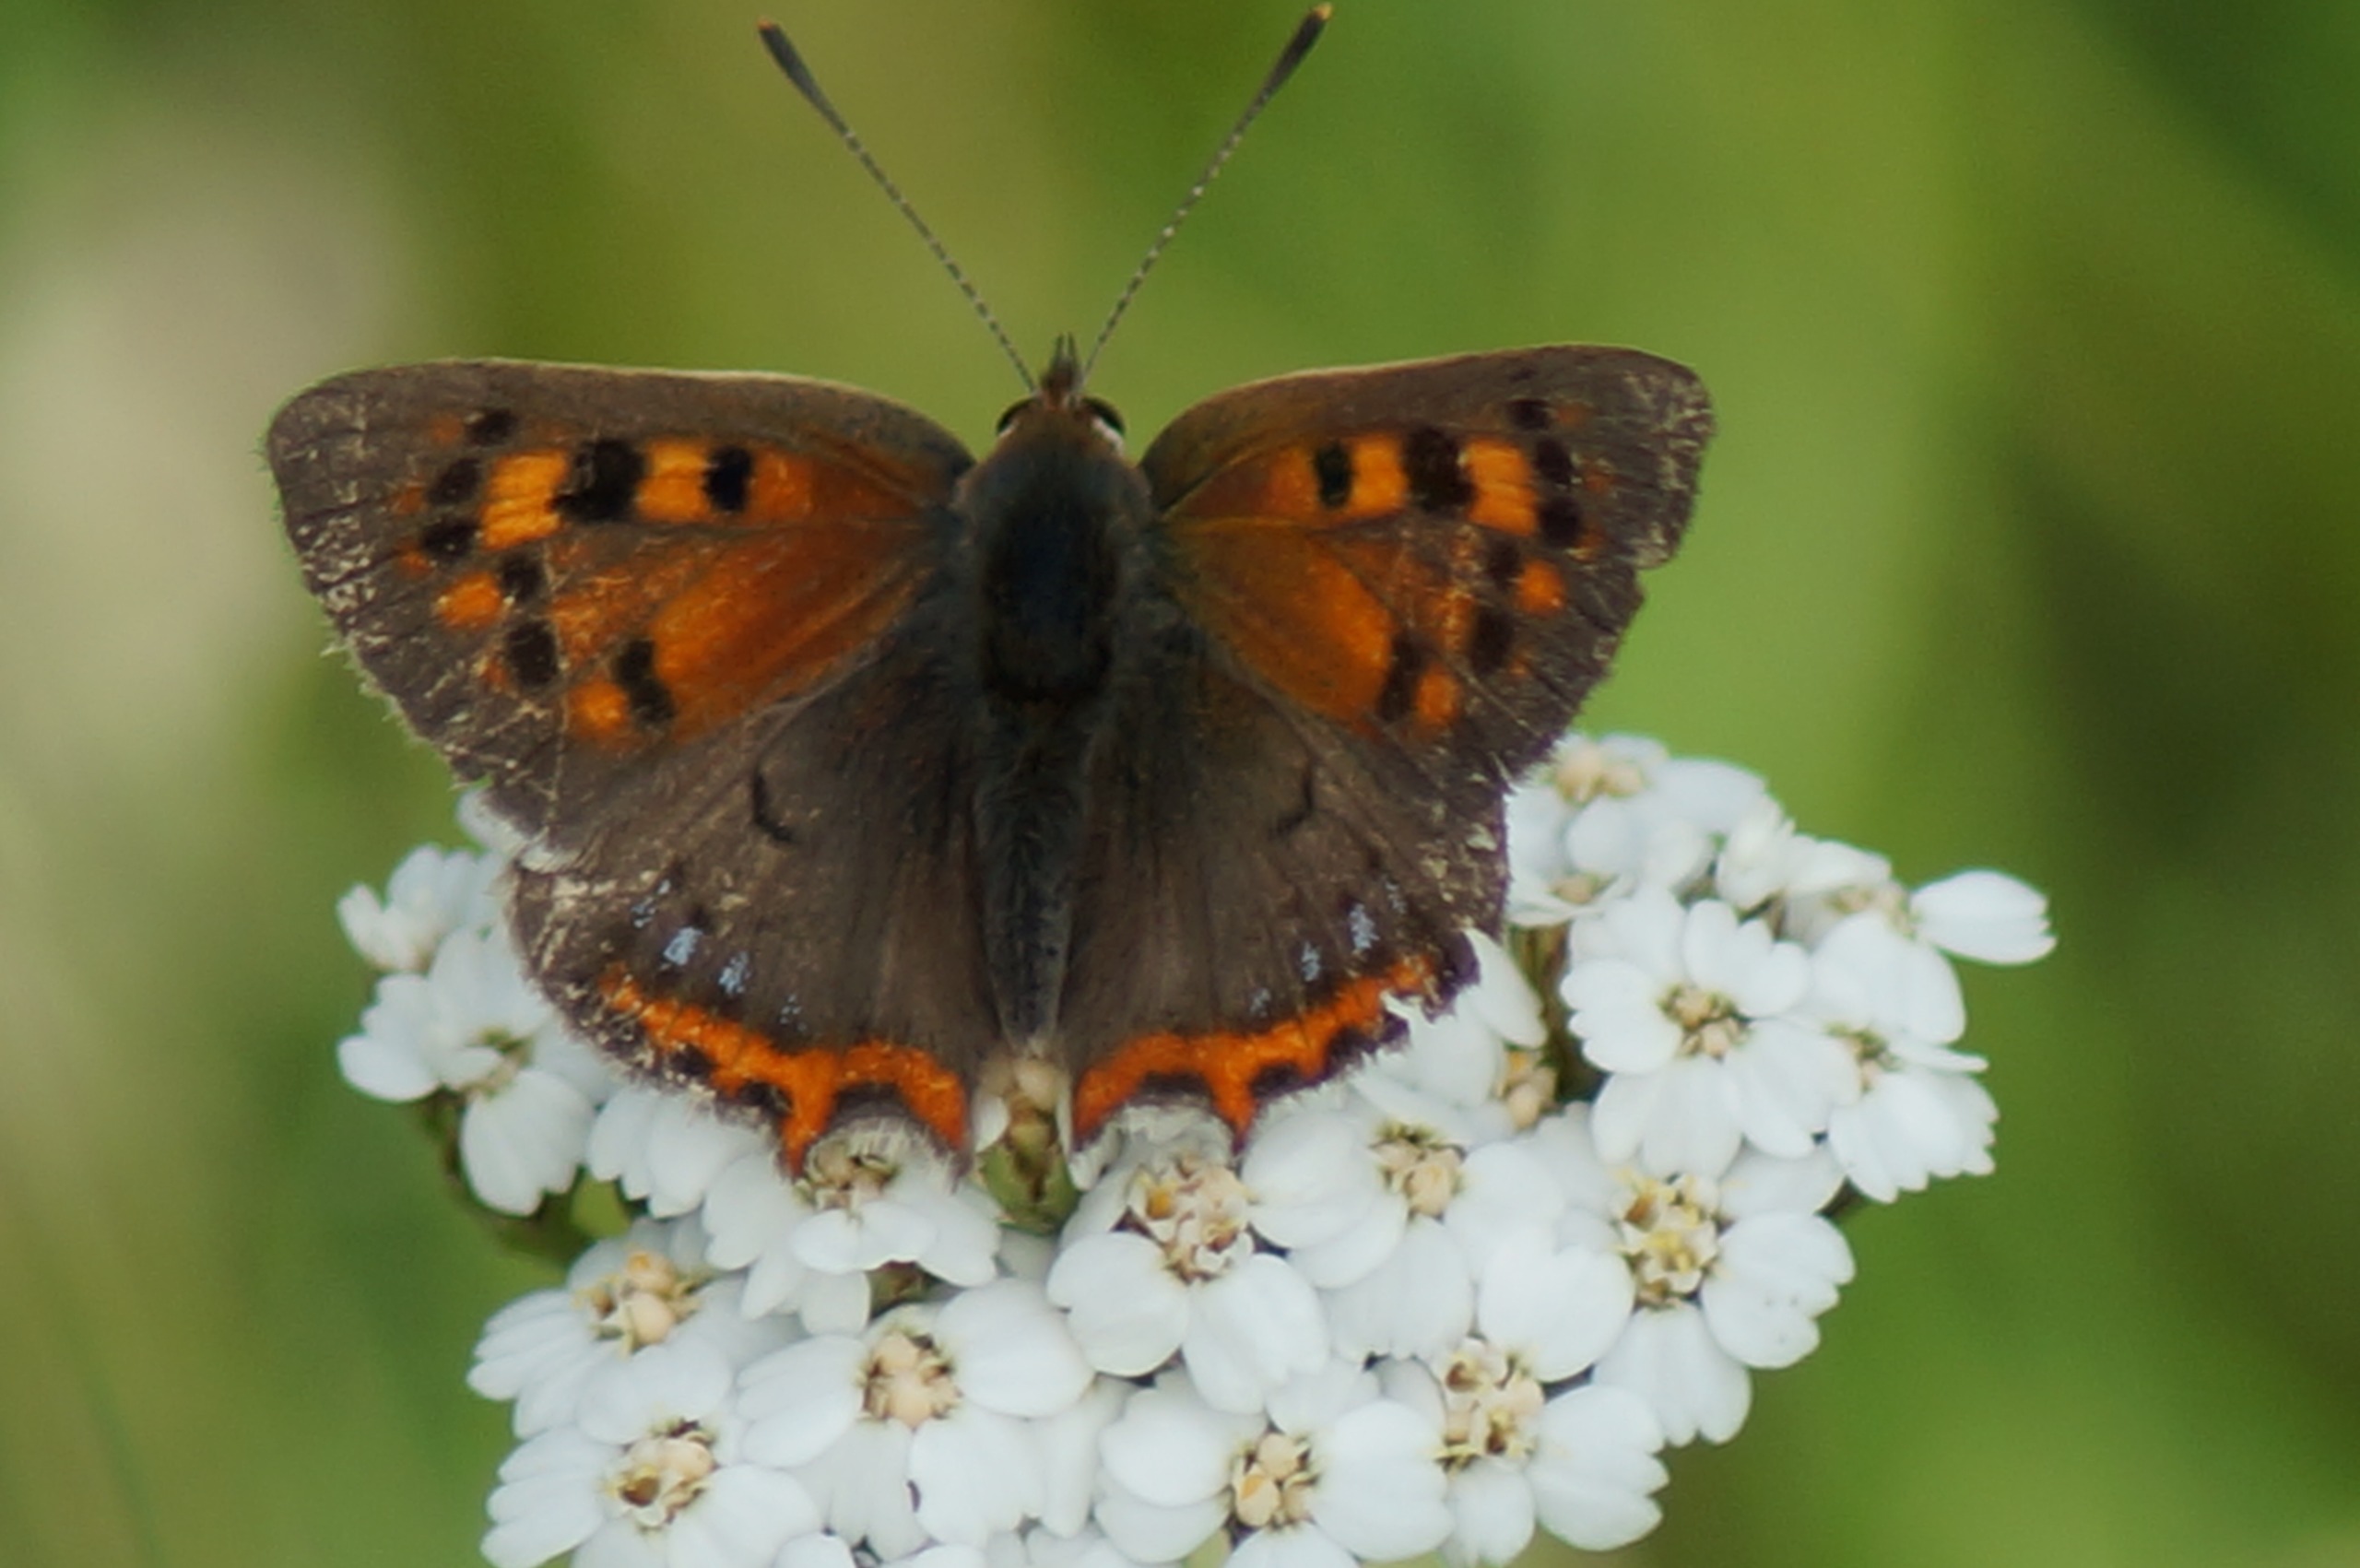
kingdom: Animalia
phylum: Arthropoda
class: Insecta
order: Lepidoptera
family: Lycaenidae
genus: Lycaena
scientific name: Lycaena phlaeas
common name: Lille ildfugl
